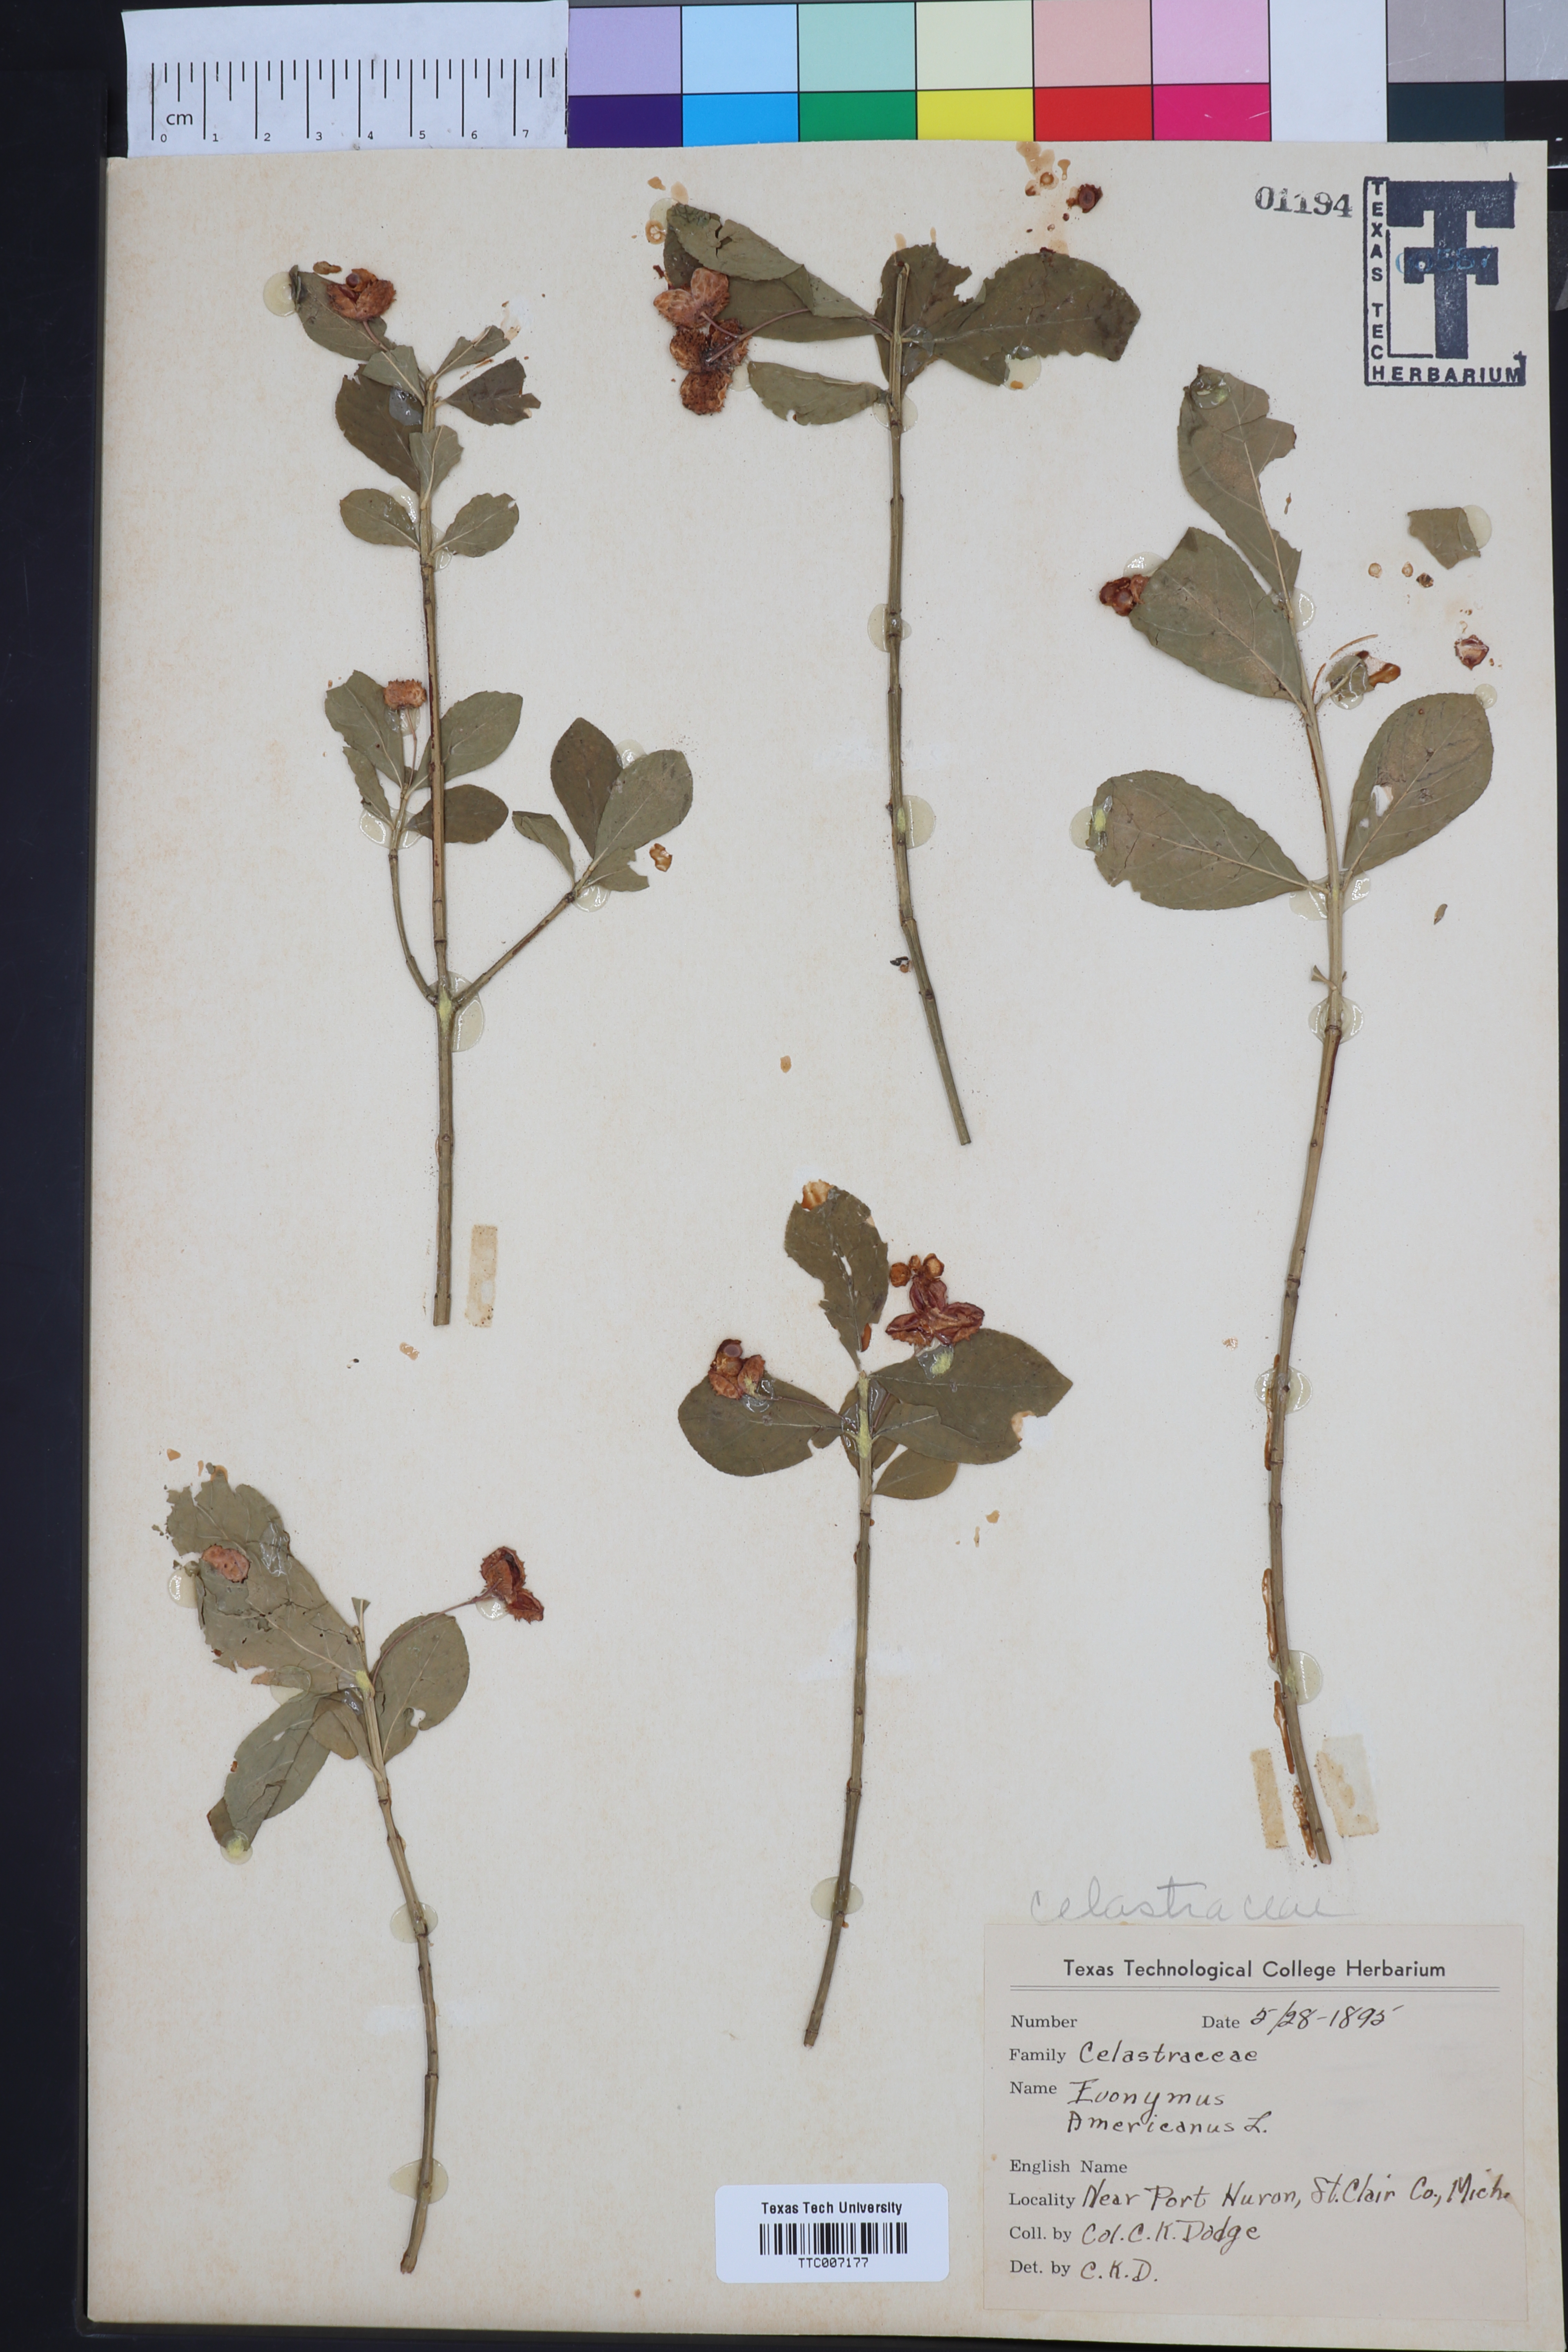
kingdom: Plantae
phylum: Tracheophyta
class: Magnoliopsida
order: Celastrales
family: Celastraceae
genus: Euonymus
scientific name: Euonymus americanus
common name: Bursting-heart
